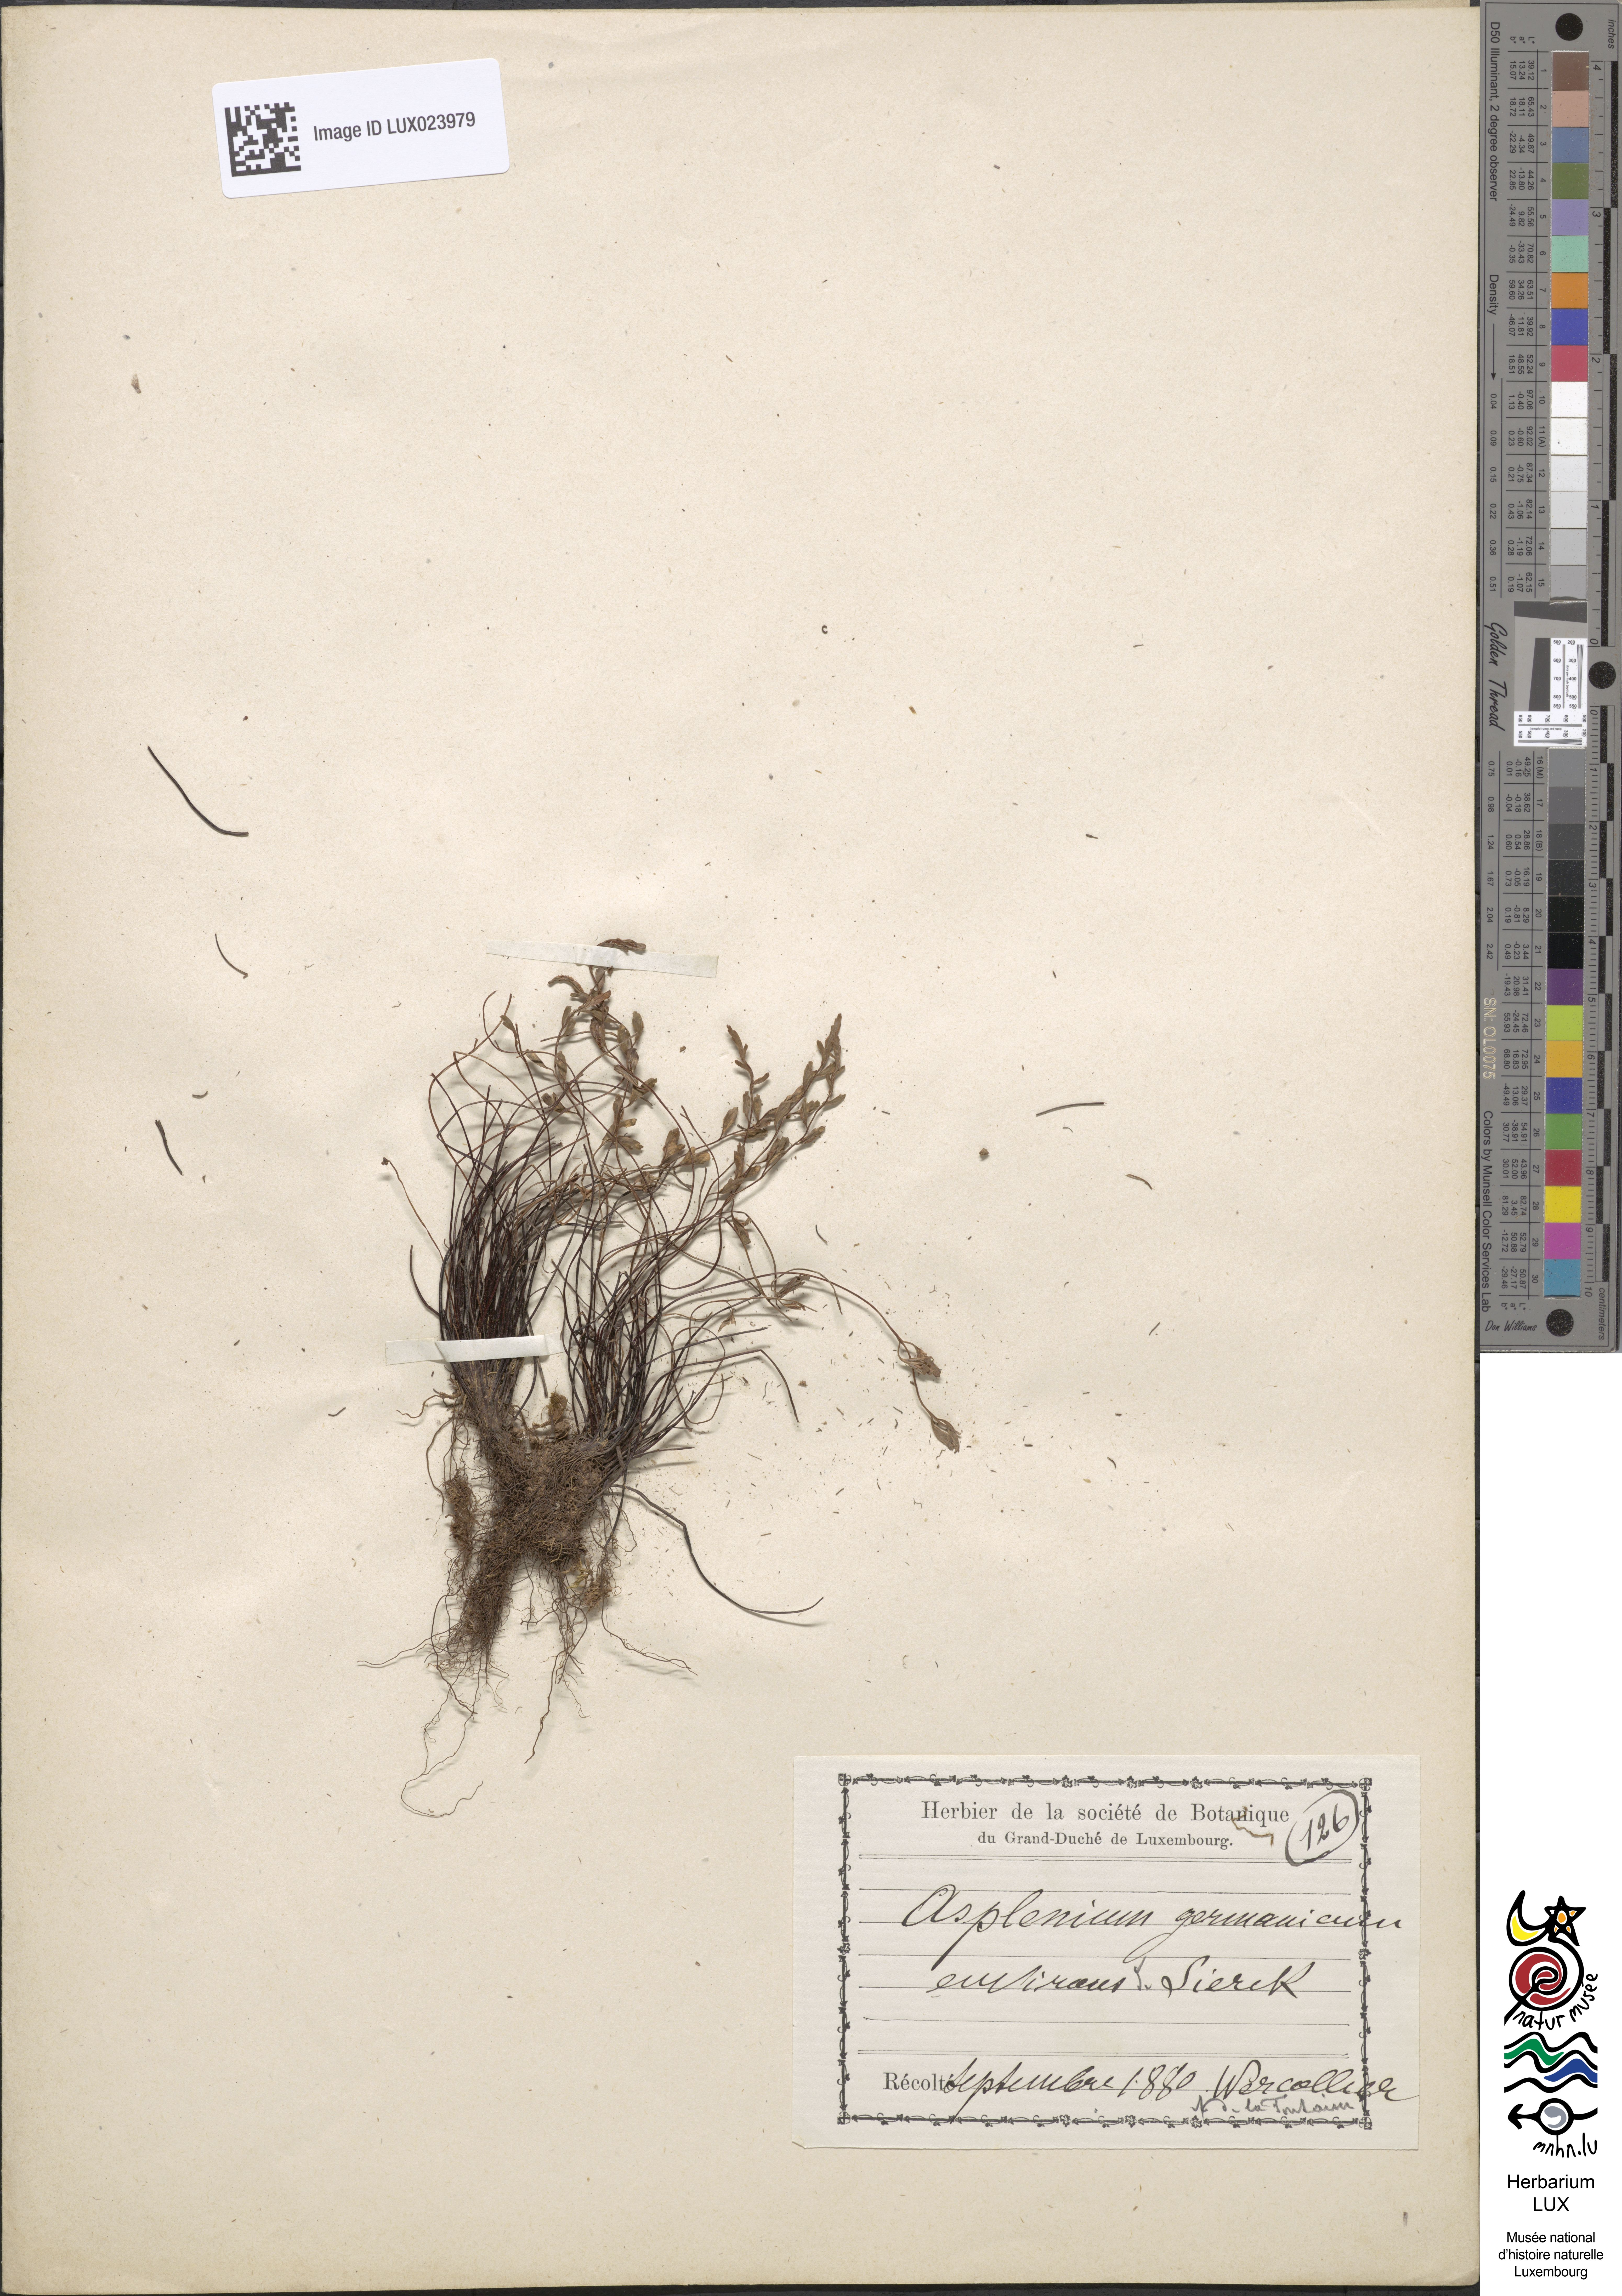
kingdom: Plantae
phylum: Tracheophyta
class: Polypodiopsida
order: Polypodiales
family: Aspleniaceae
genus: Asplenium
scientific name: Asplenium
